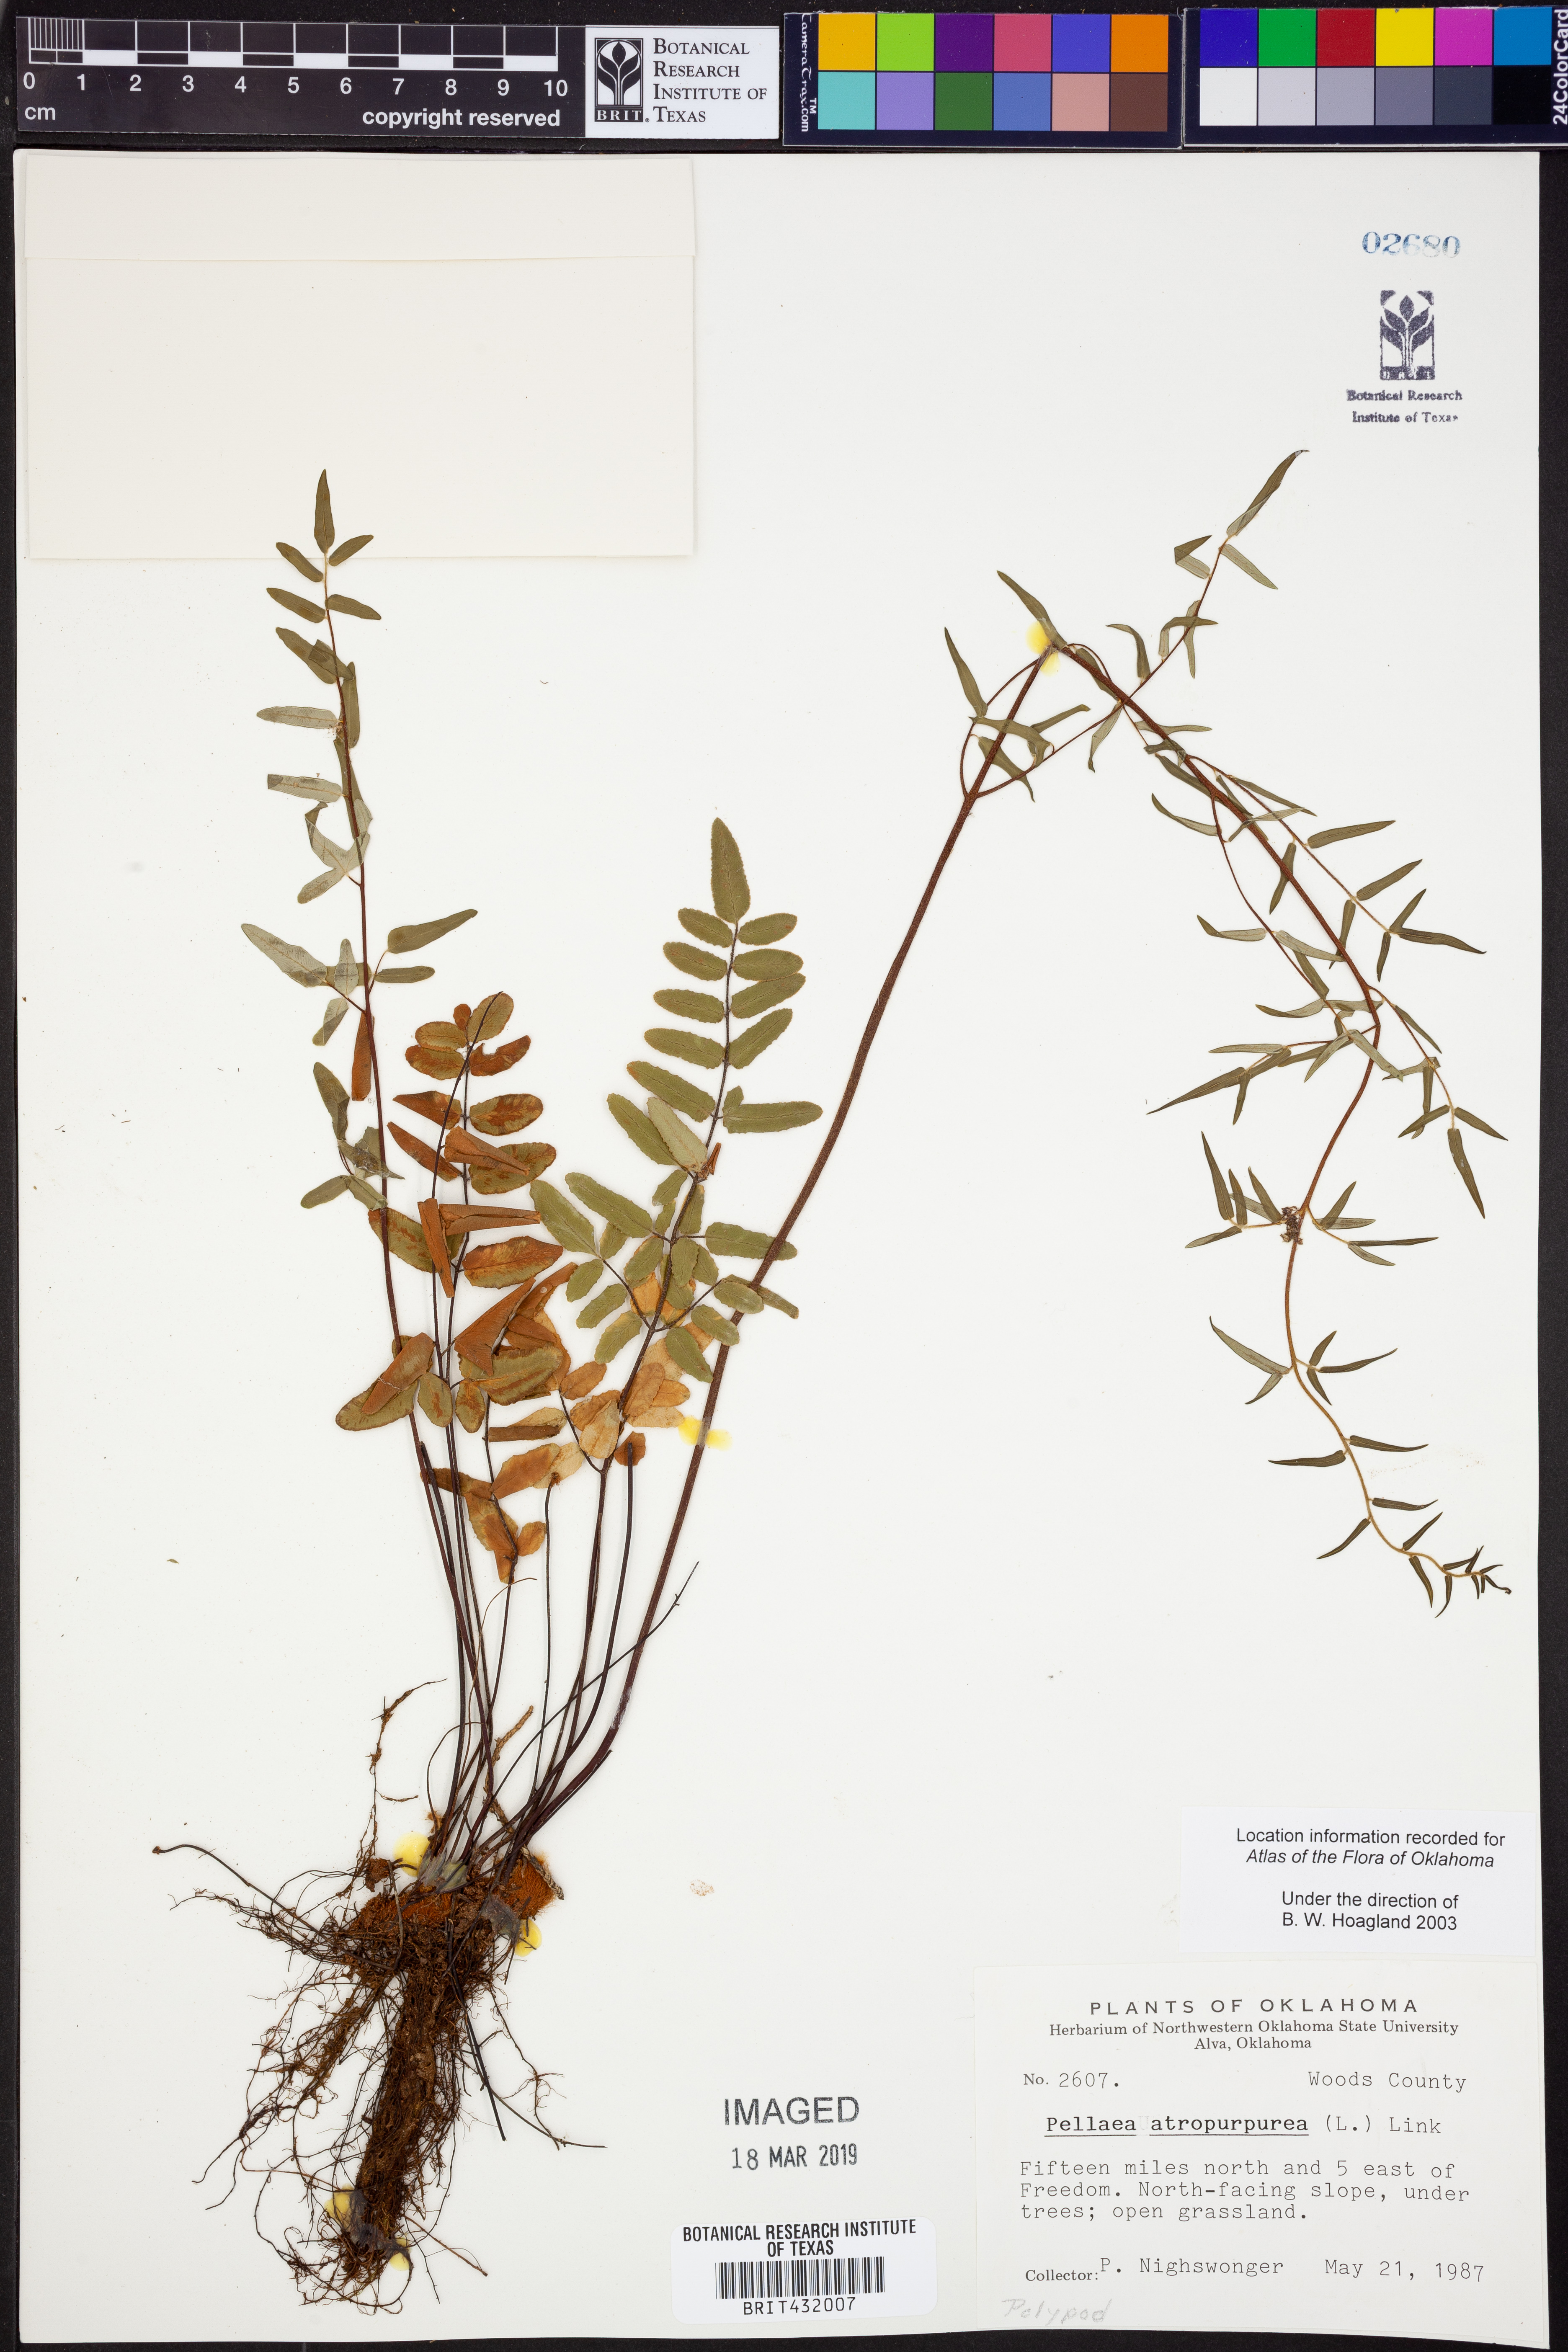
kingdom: Plantae
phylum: Tracheophyta
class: Polypodiopsida
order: Polypodiales
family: Pteridaceae
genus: Pellaea
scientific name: Pellaea atropurpurea
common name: Hairy cliffbrake
